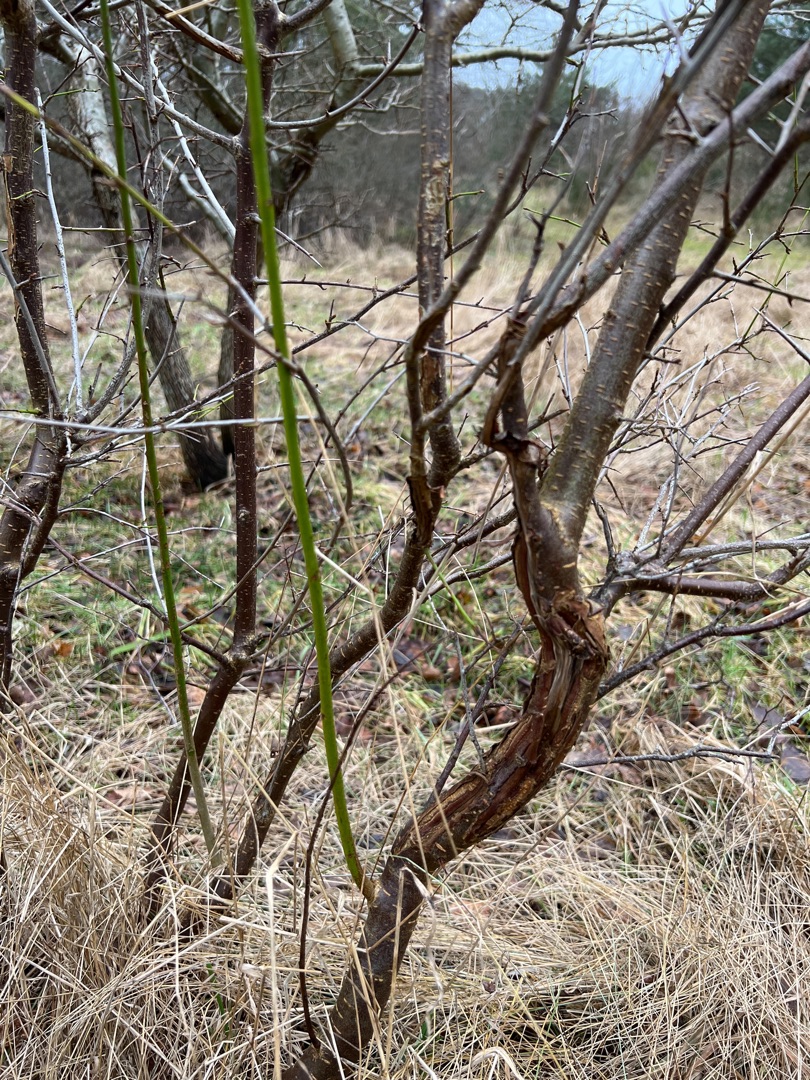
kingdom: Plantae
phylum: Tracheophyta
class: Magnoliopsida
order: Rosales
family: Rosaceae
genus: Prunus
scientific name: Prunus cerasifera
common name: Mirabel
